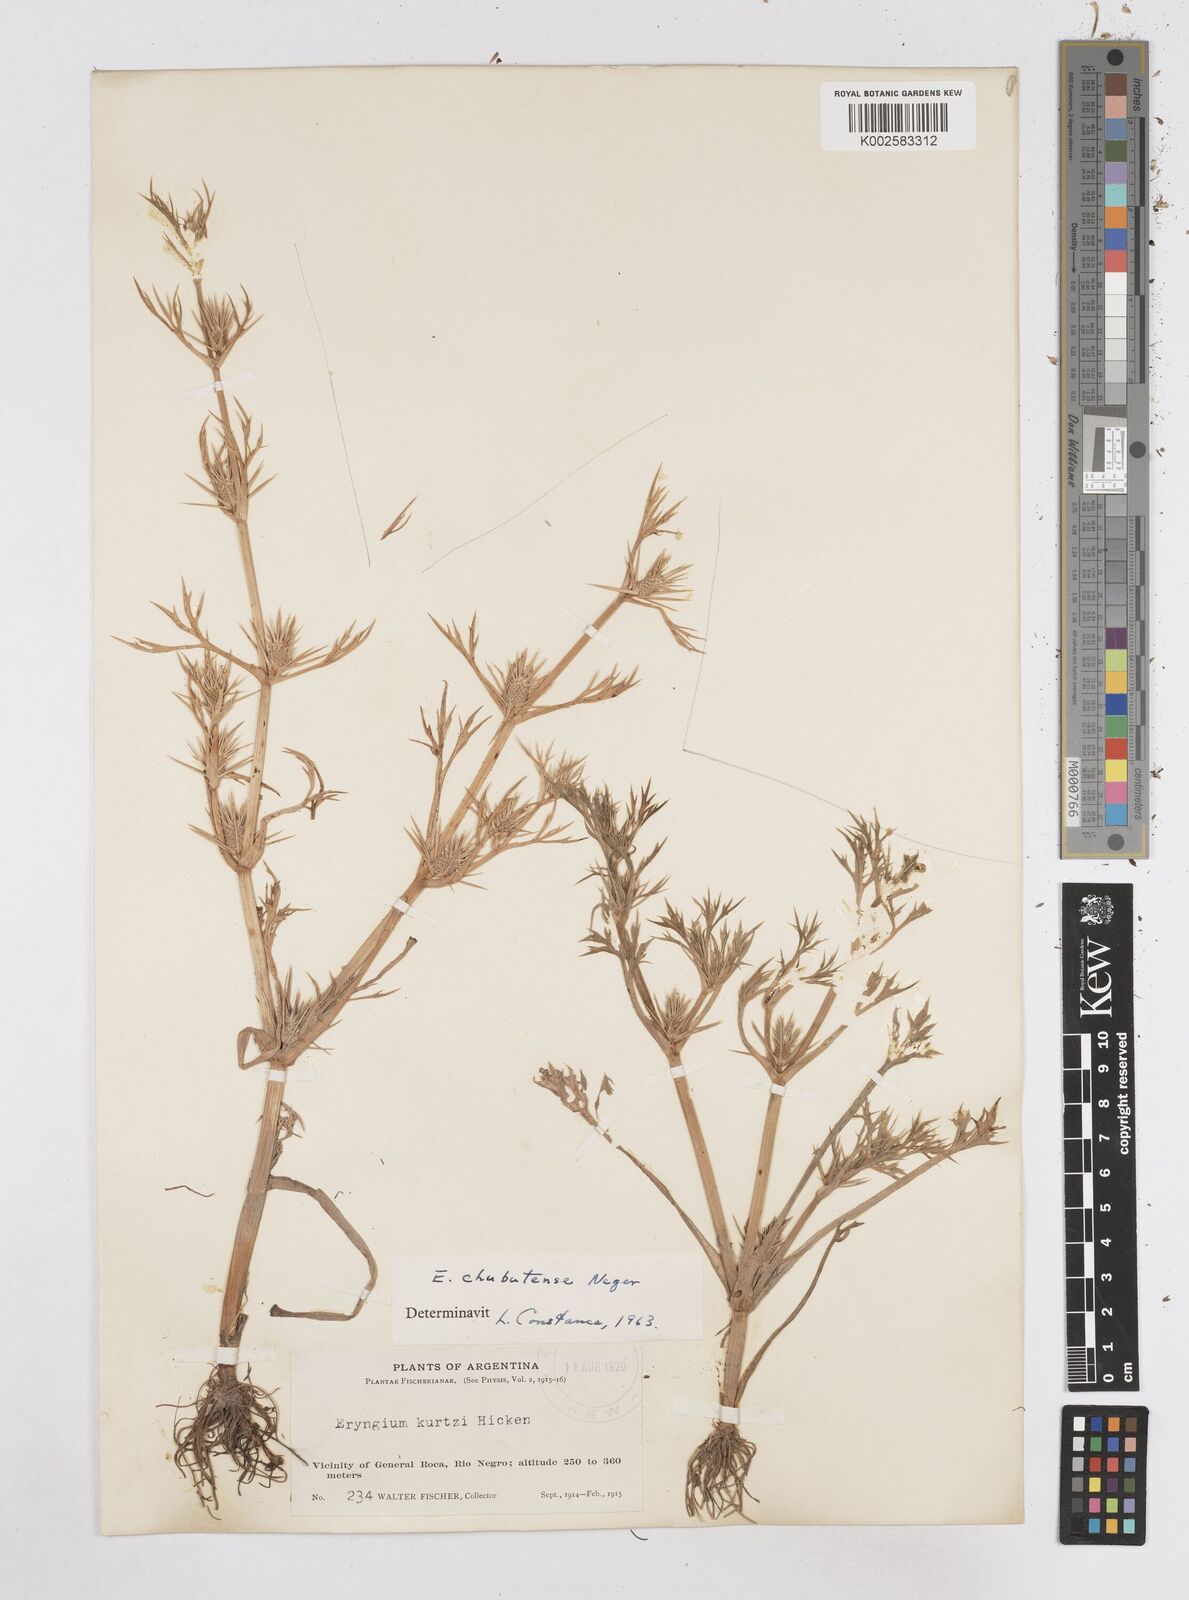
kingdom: Plantae
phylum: Tracheophyta
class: Magnoliopsida
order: Apiales
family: Apiaceae
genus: Eryngium
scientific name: Eryngium chubutense
